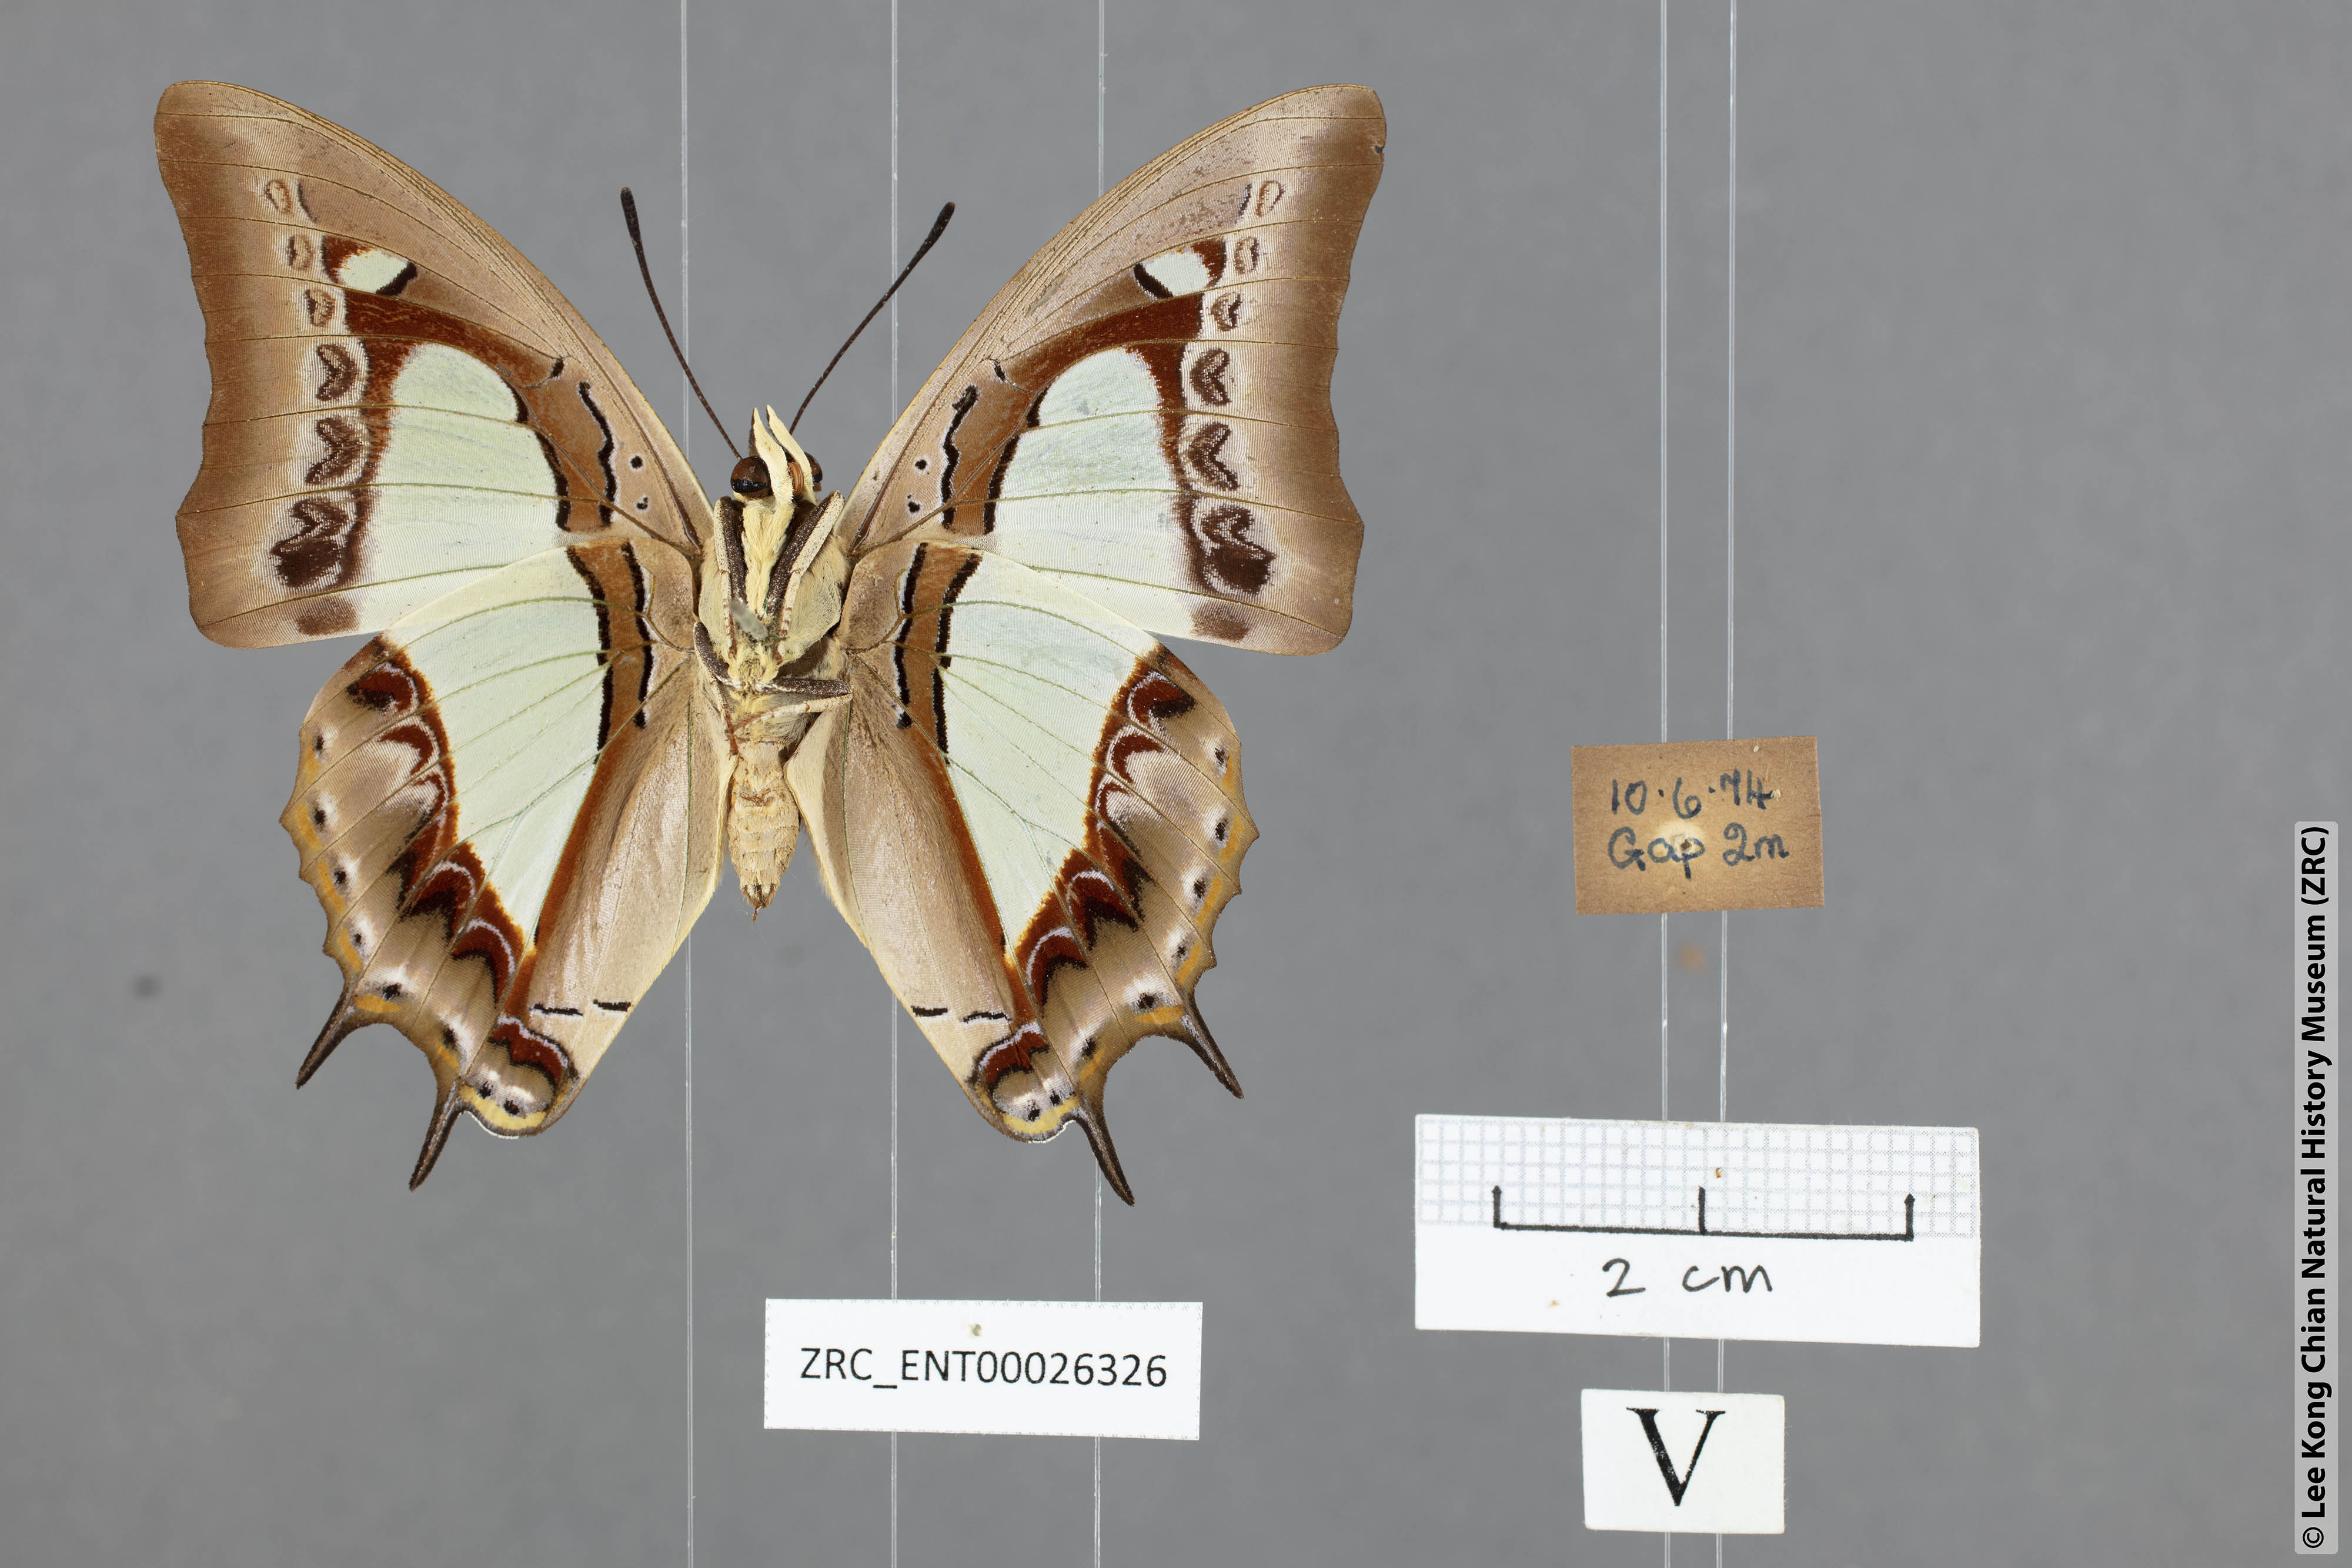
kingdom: Animalia
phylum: Arthropoda
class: Insecta
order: Lepidoptera
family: Nymphalidae
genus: Polyura
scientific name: Polyura athamas
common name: Common nawab
